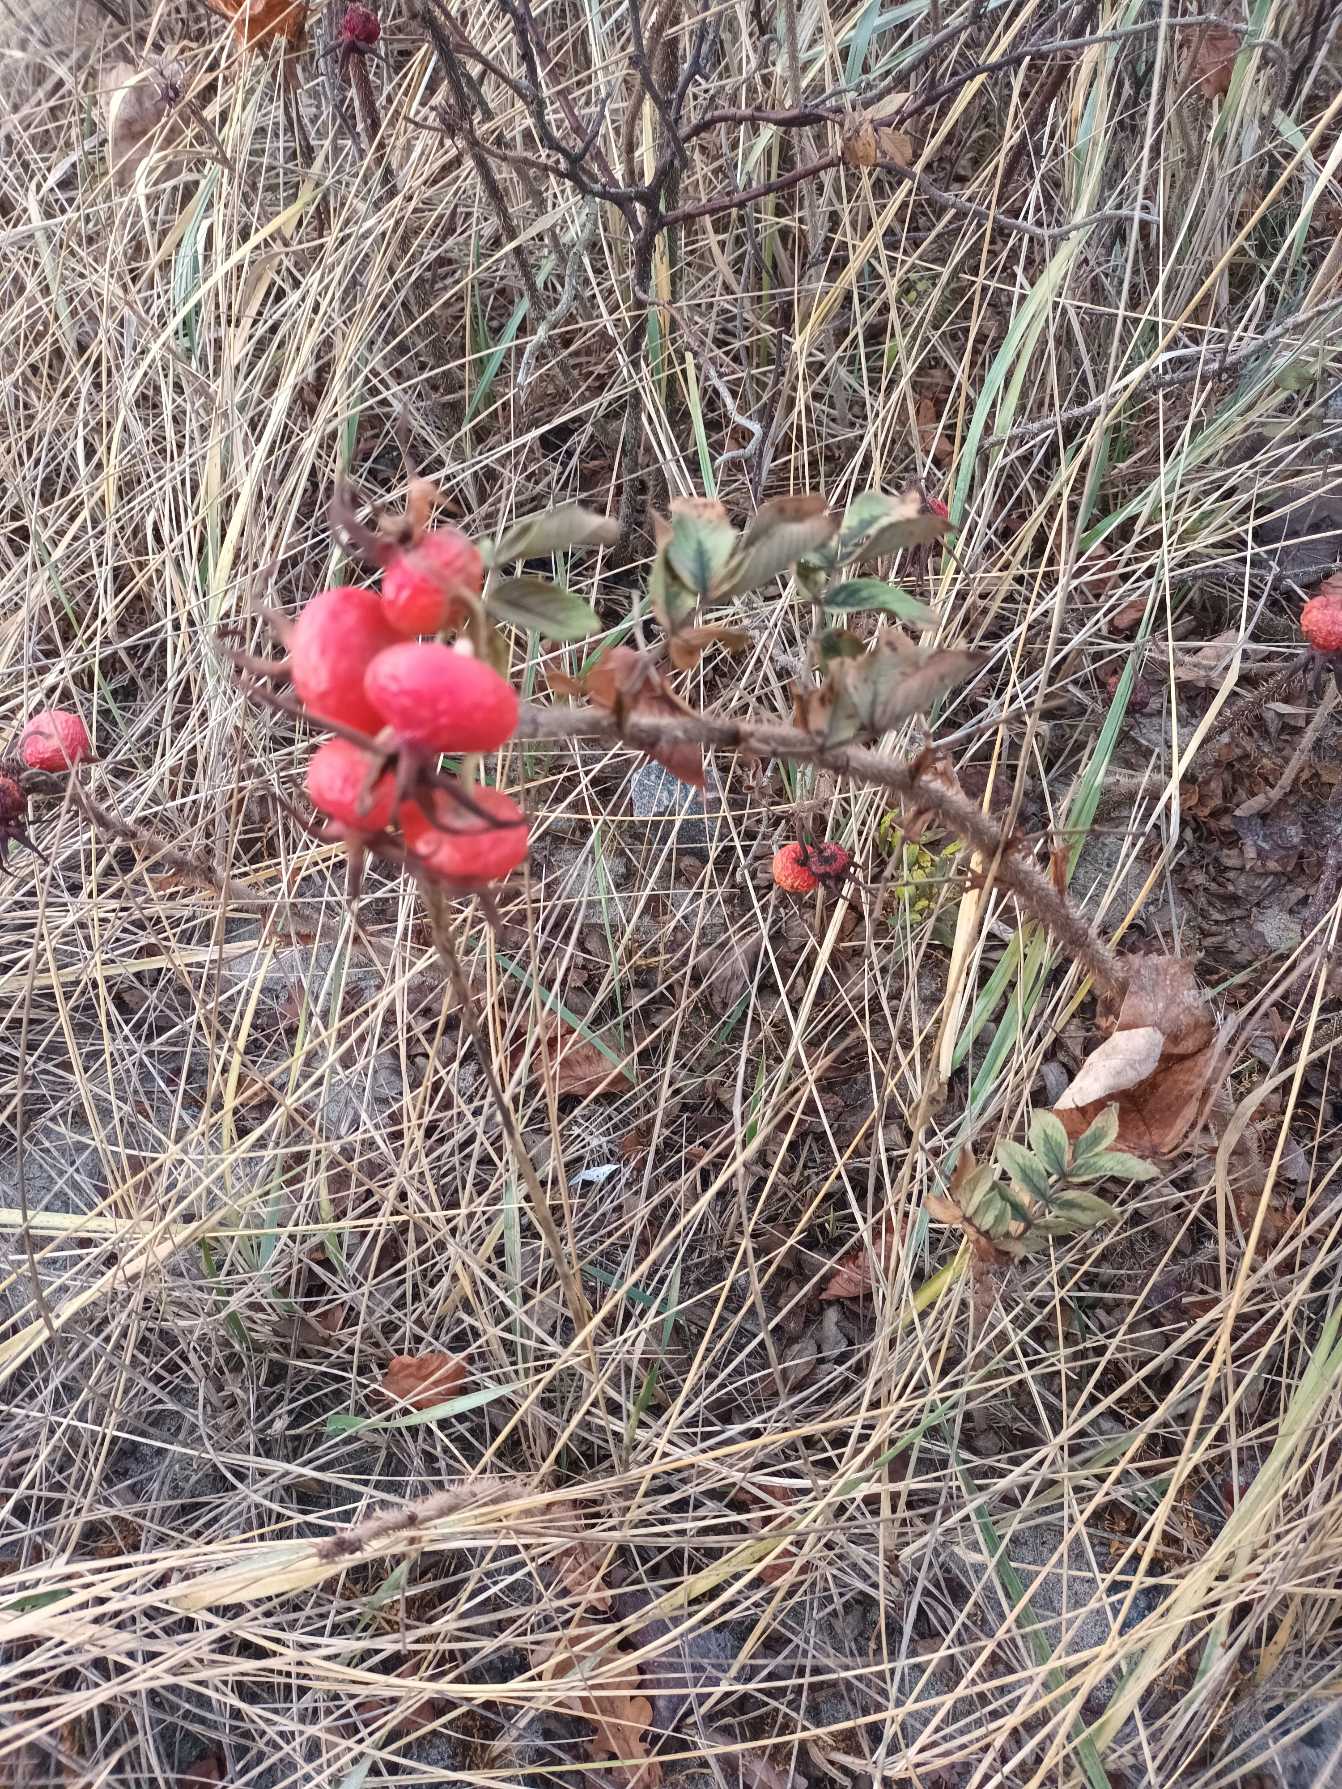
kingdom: Plantae
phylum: Tracheophyta
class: Magnoliopsida
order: Rosales
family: Rosaceae
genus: Rosa
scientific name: Rosa rugosa
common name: Rynket rose
